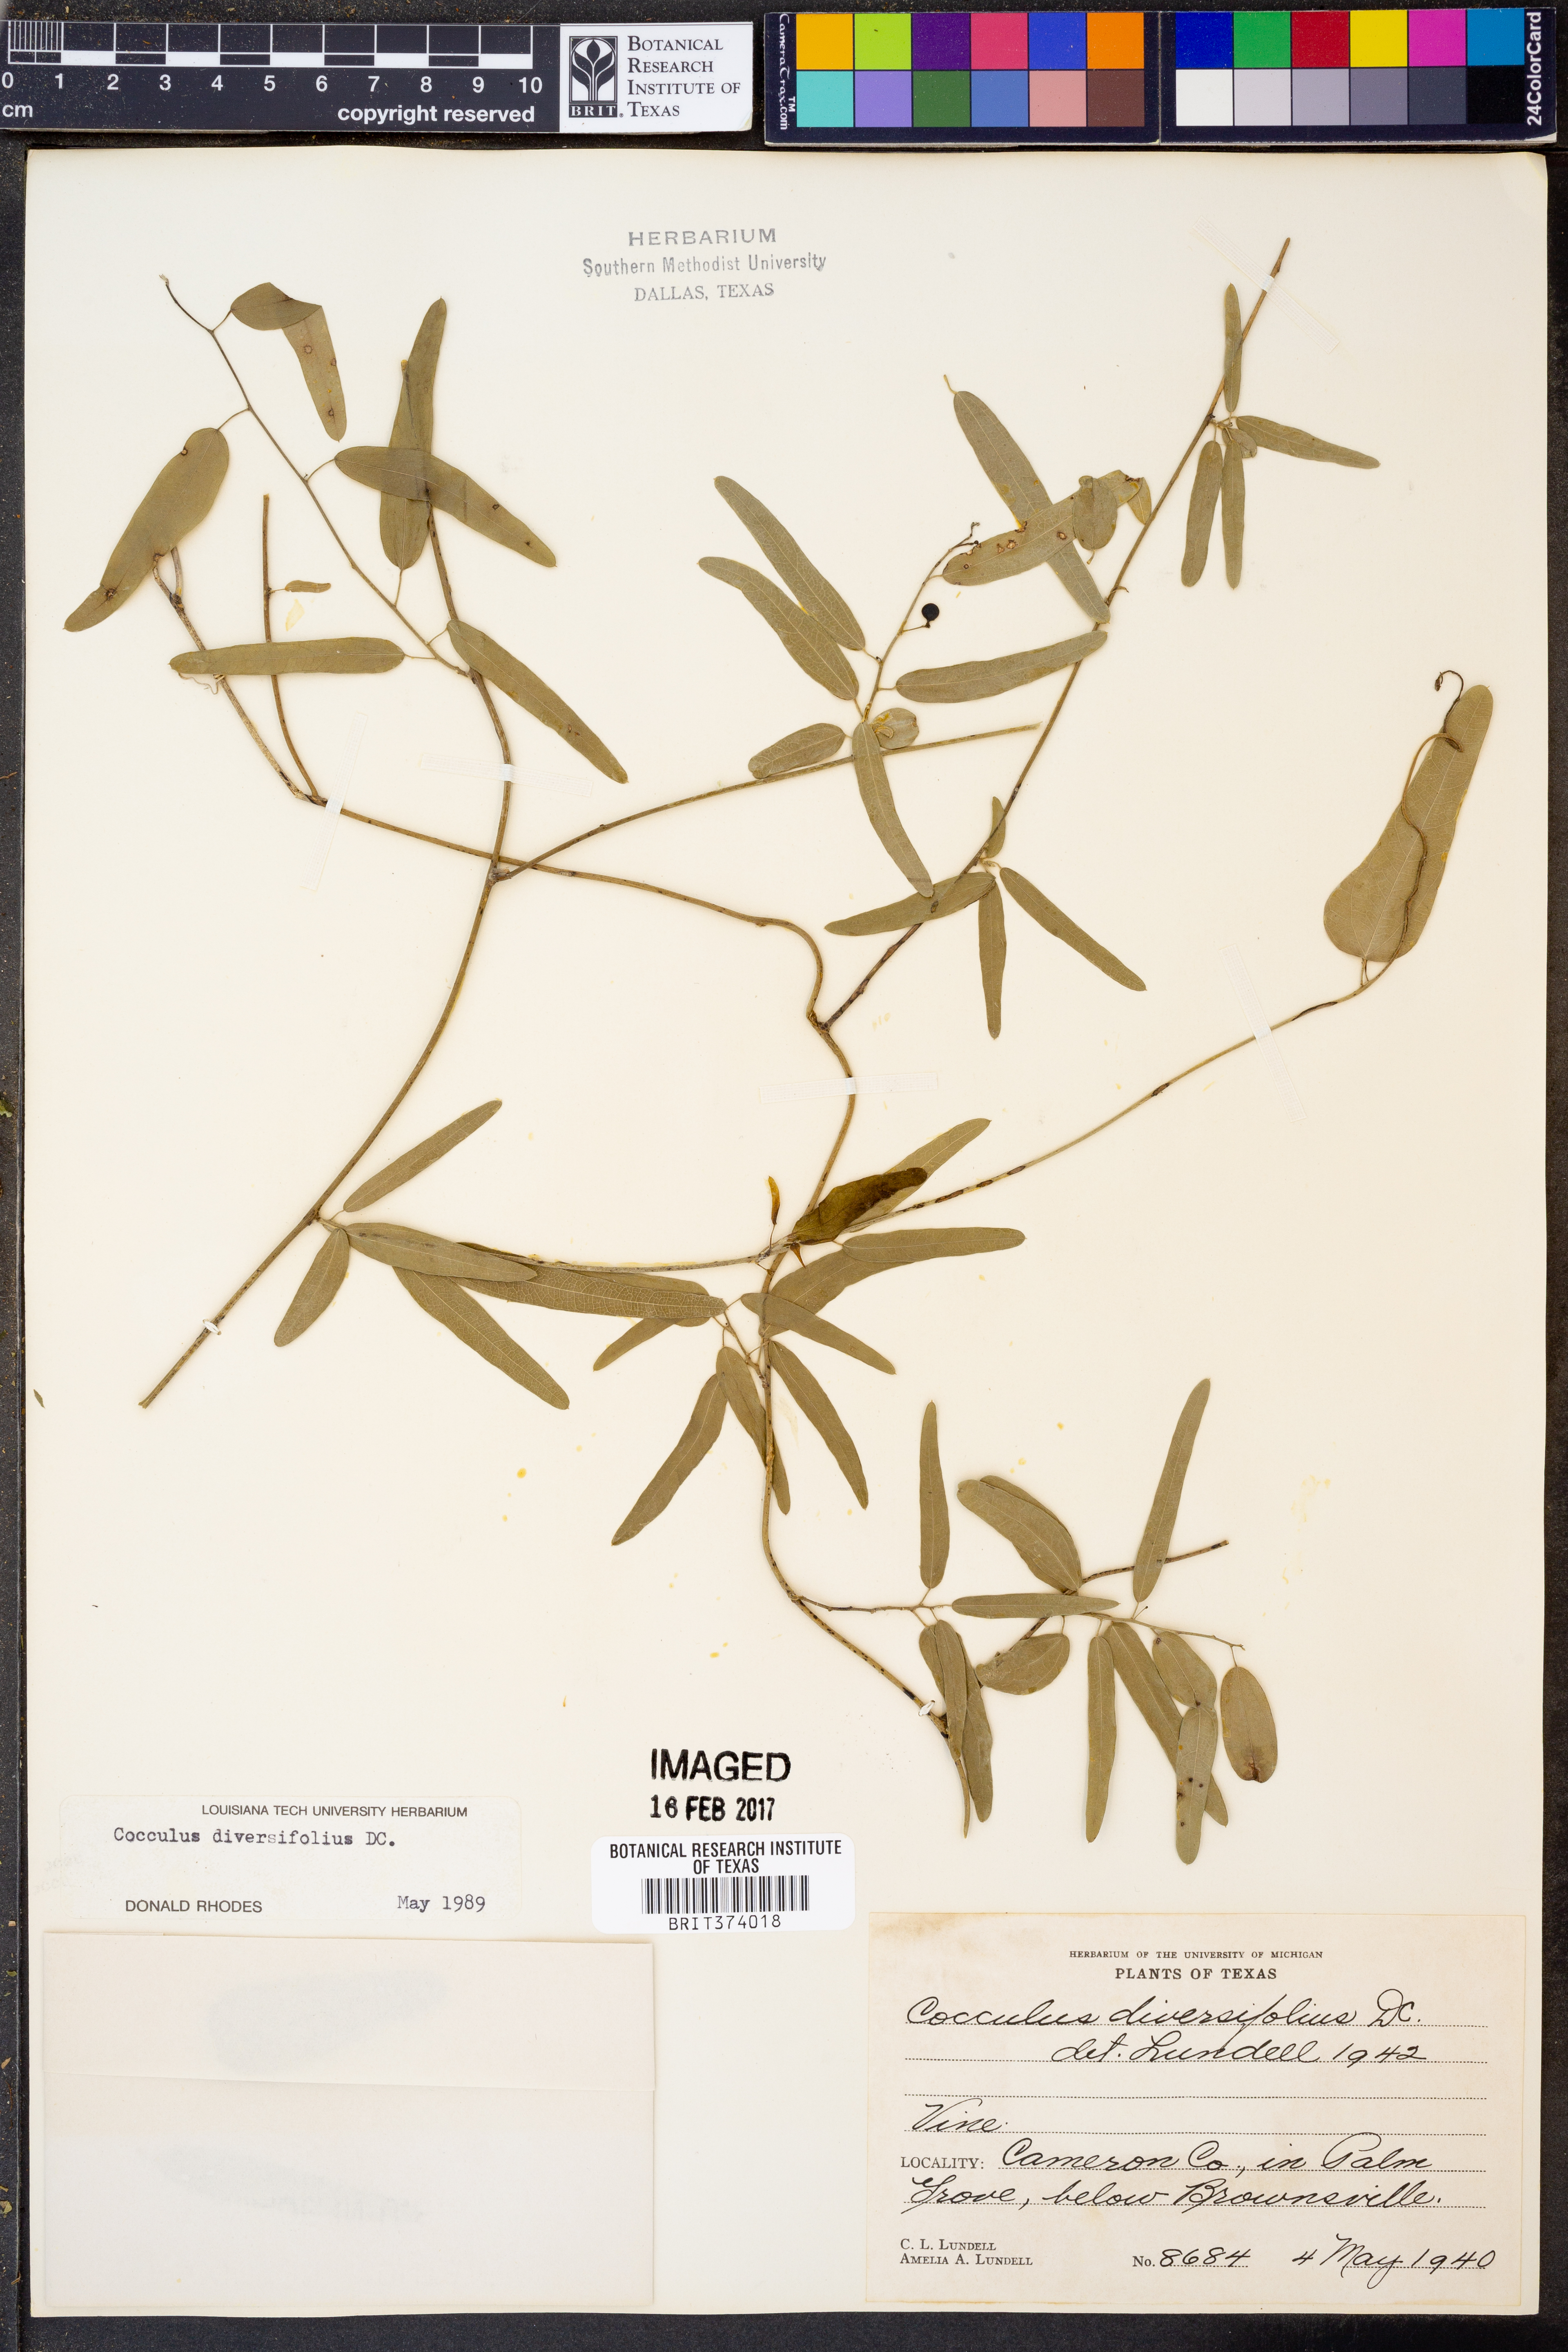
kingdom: Plantae
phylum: Tracheophyta
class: Magnoliopsida
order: Ranunculales
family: Menispermaceae
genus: Cocculus
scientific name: Cocculus diversifolius
